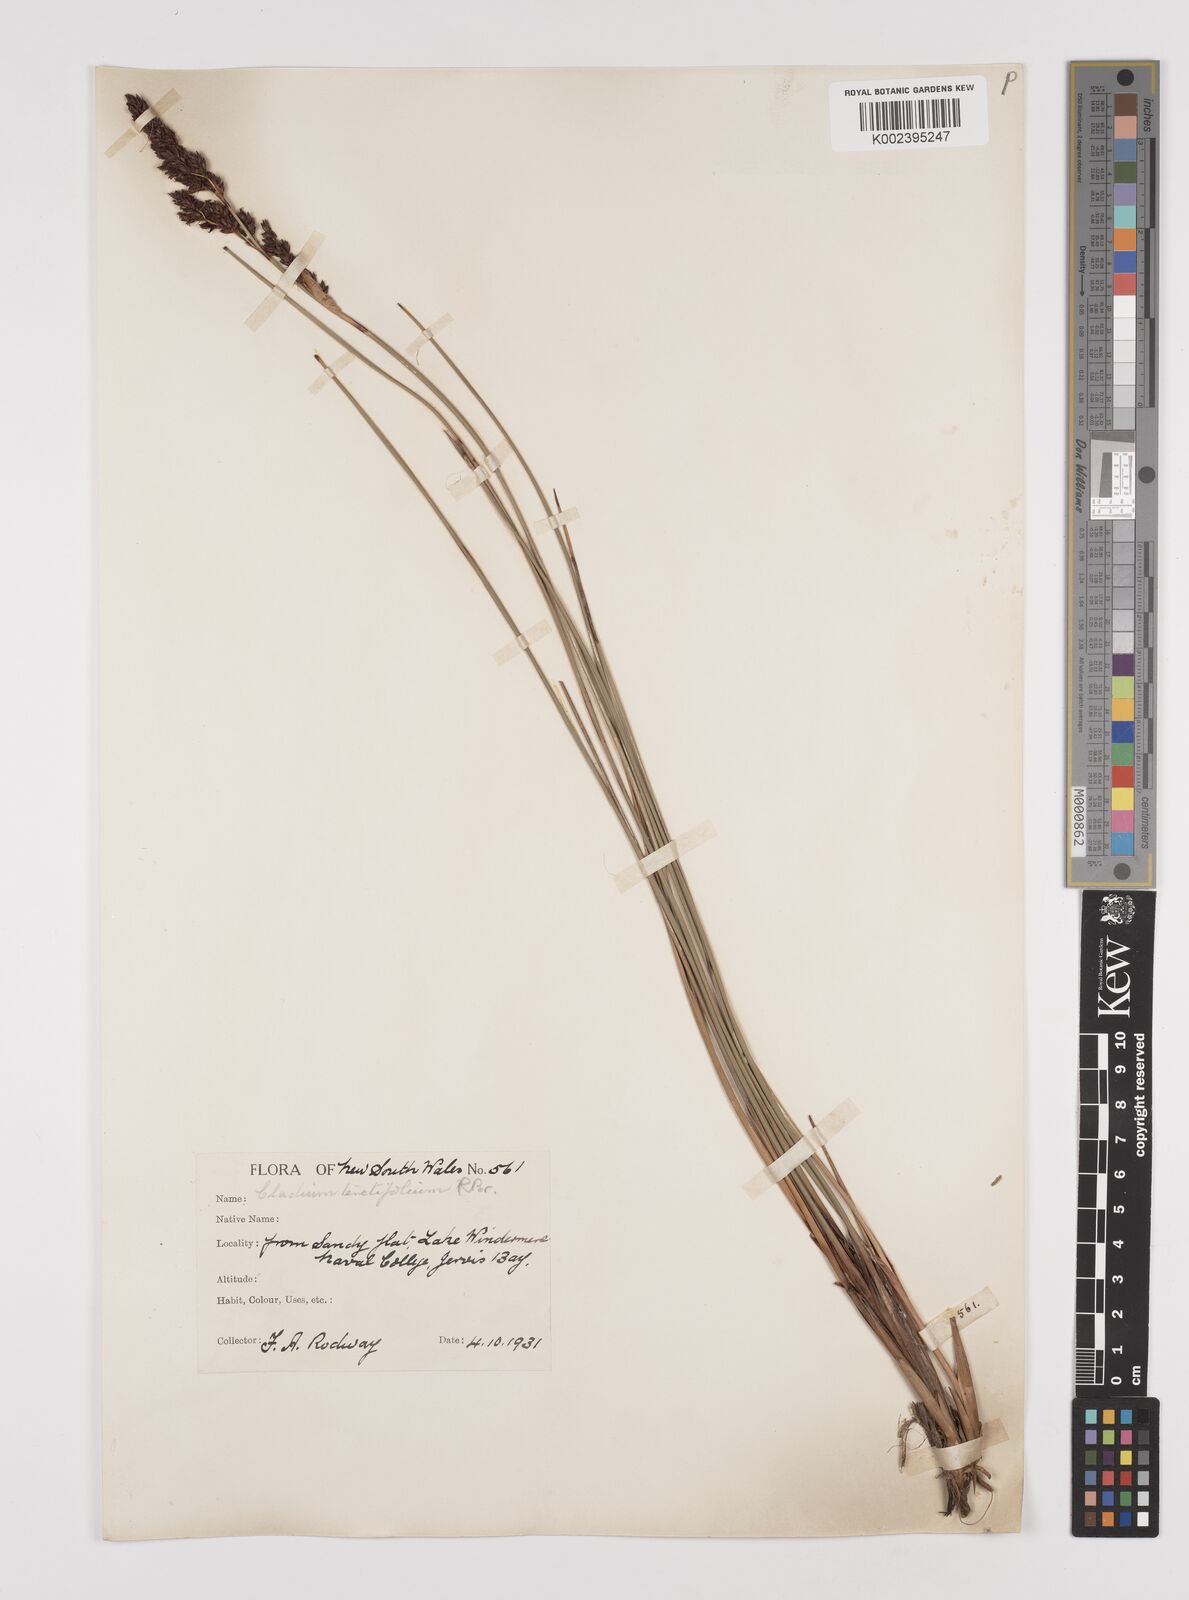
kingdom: Plantae
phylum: Tracheophyta
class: Liliopsida
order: Poales
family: Cyperaceae
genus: Machaerina
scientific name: Machaerina teretifolia
